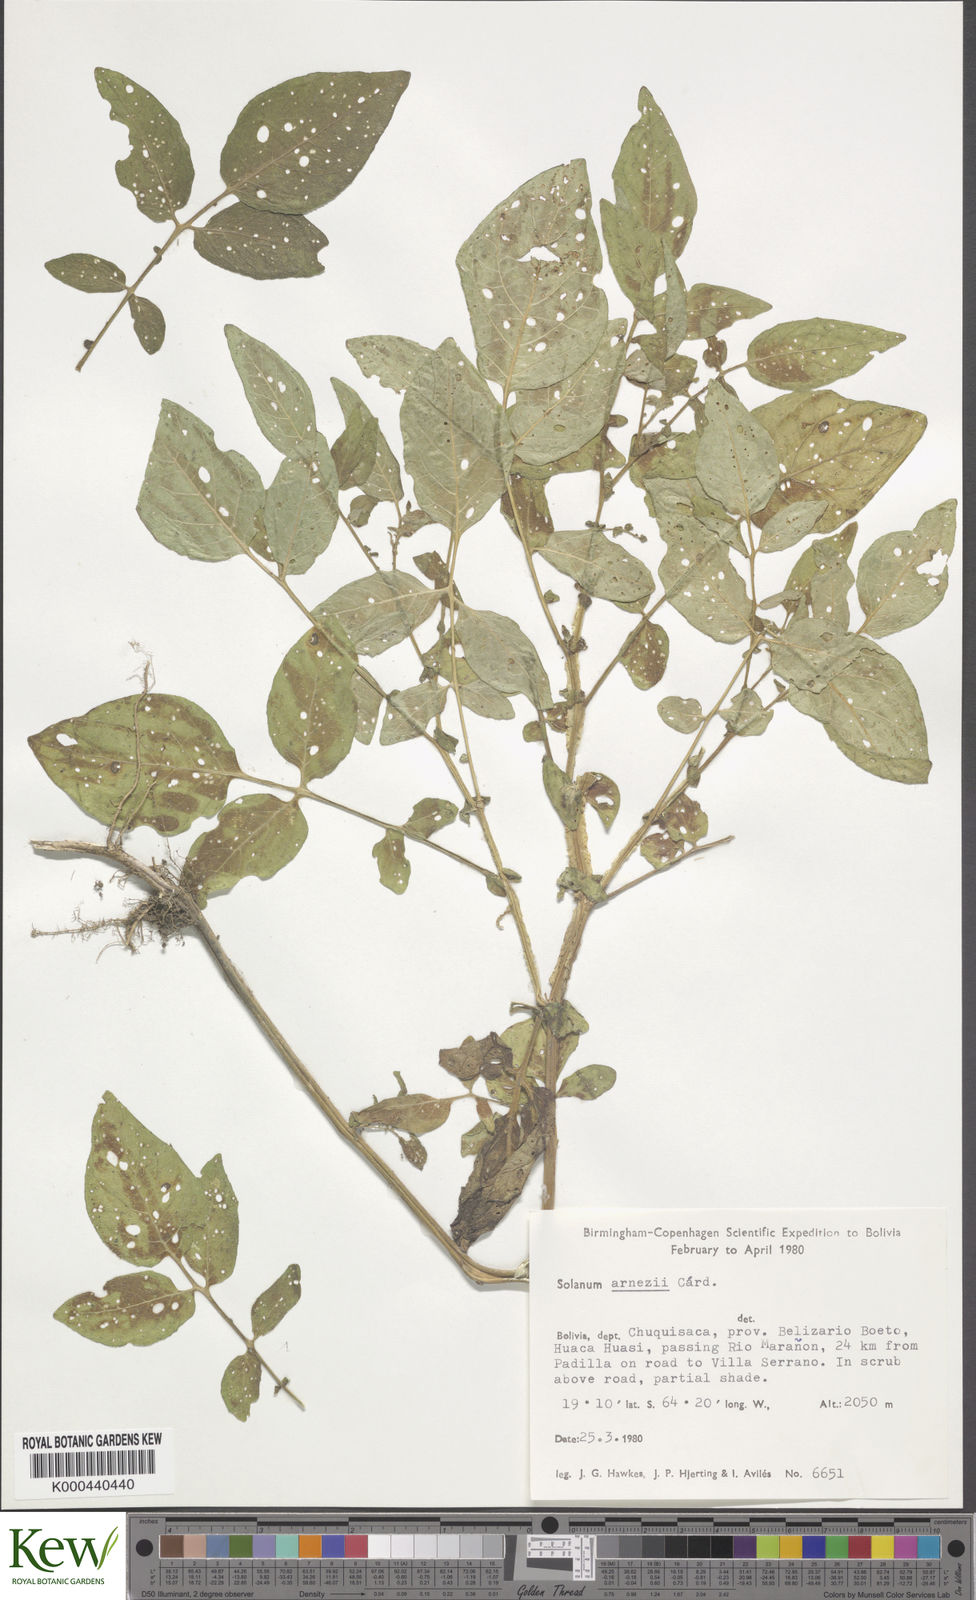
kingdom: Plantae
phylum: Tracheophyta
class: Magnoliopsida
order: Solanales
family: Solanaceae
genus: Solanum
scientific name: Solanum chacoense
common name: Chaco potato
